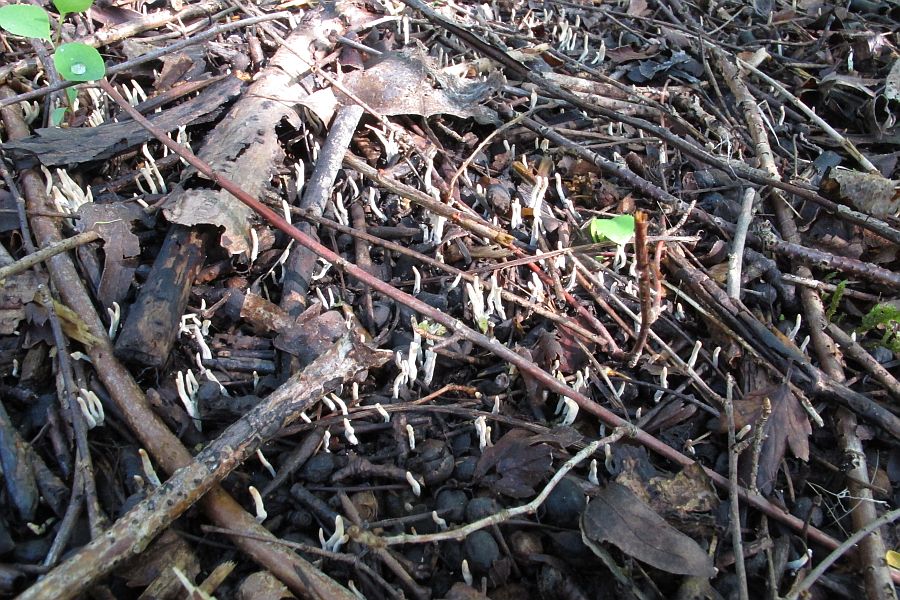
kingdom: Fungi
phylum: Ascomycota
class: Sordariomycetes
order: Xylariales
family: Xylariaceae
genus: Xylaria
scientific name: Xylaria oxyacanthae
